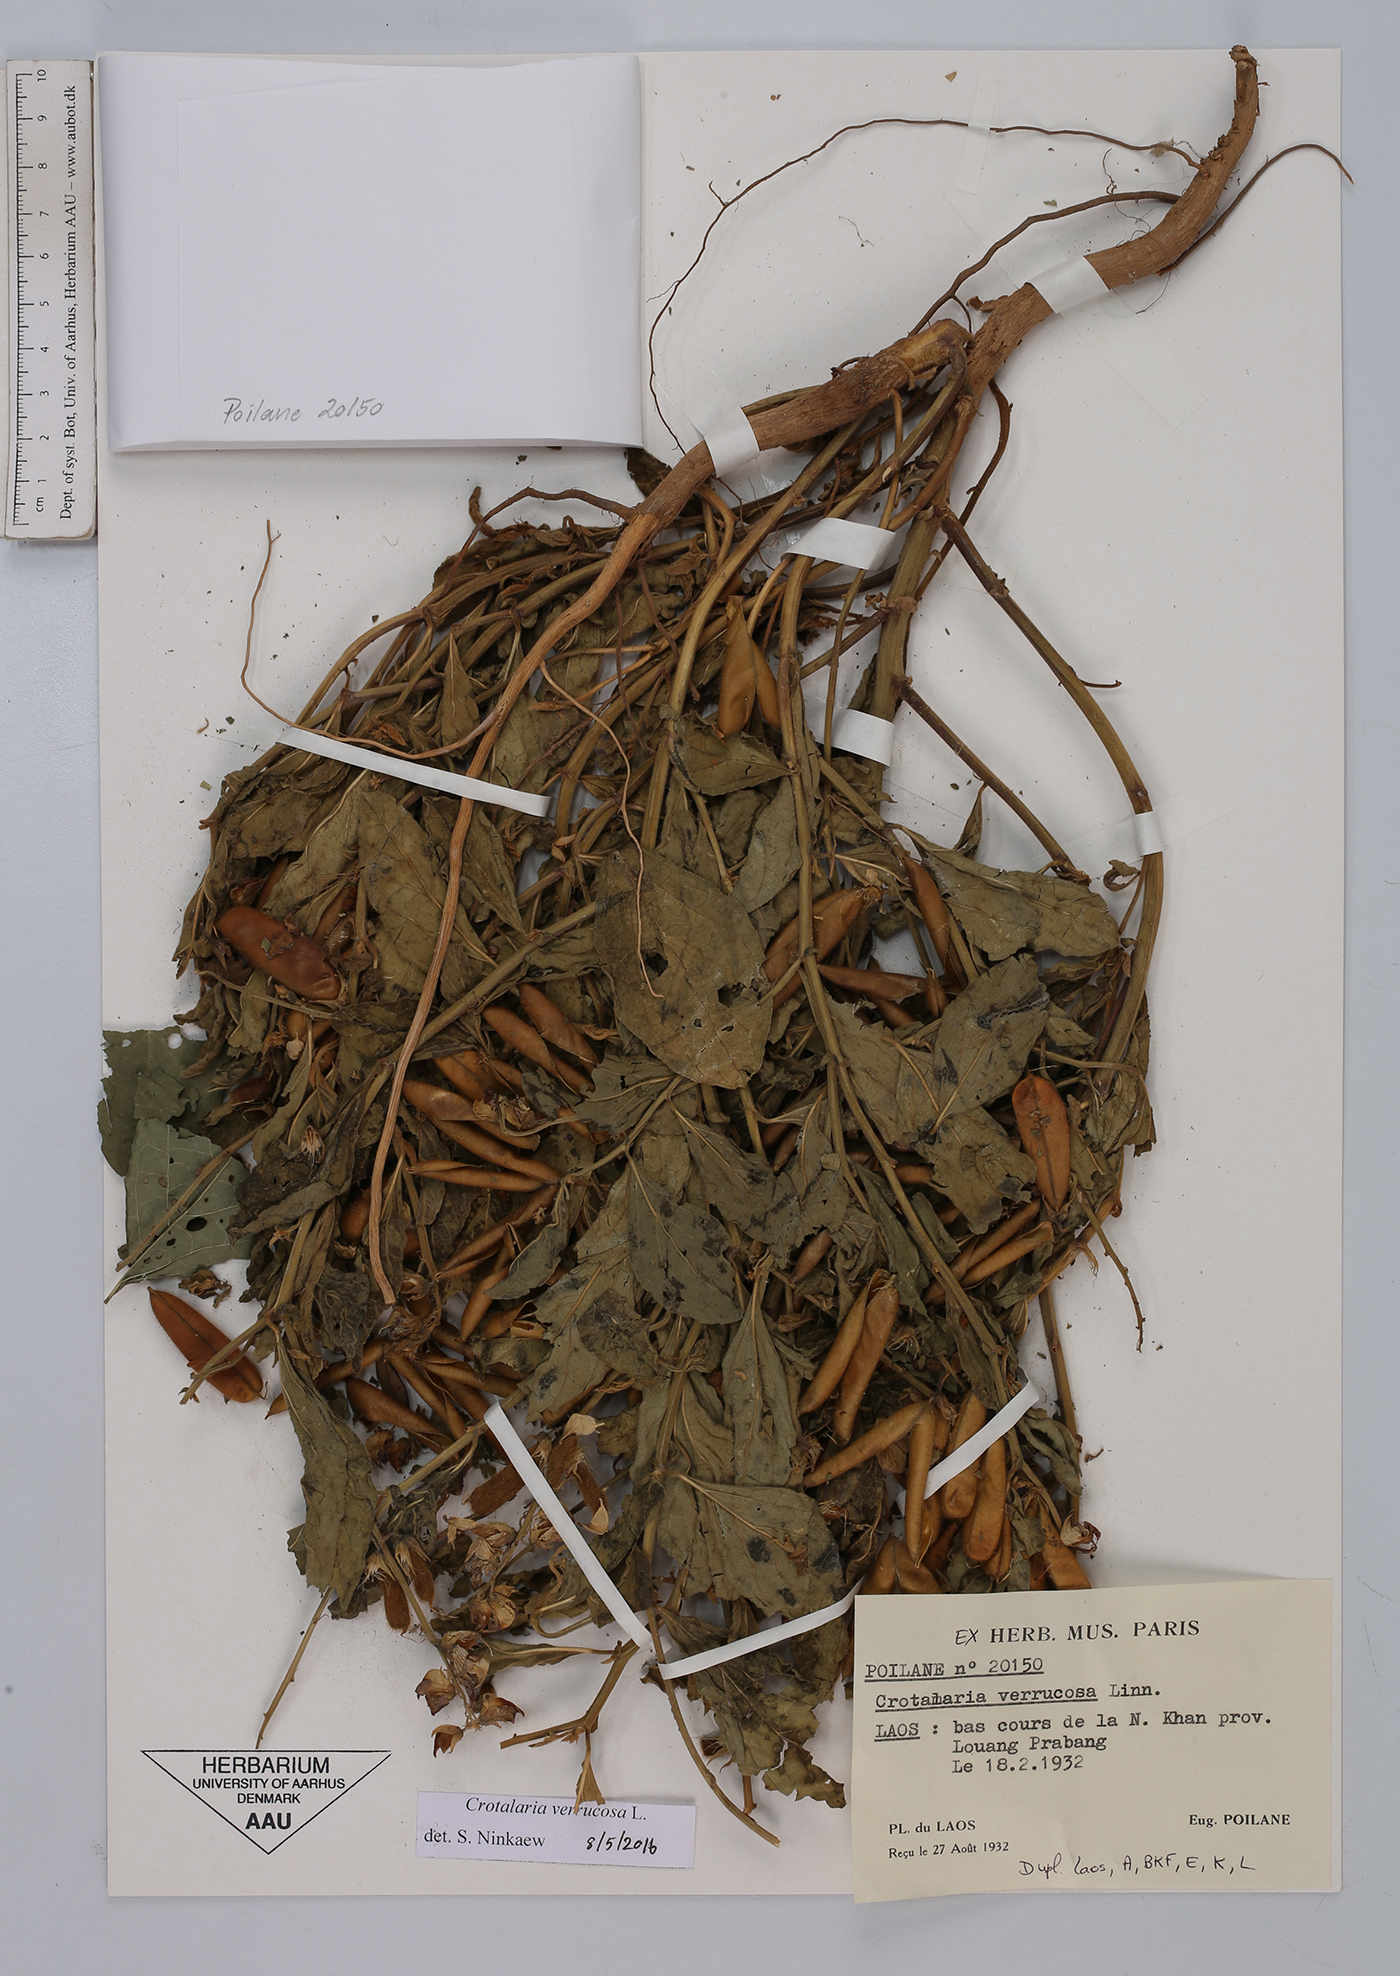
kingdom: Plantae
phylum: Tracheophyta
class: Magnoliopsida
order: Fabales
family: Fabaceae
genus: Crotalaria
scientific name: Crotalaria verrucosa
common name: Blue rattlesnake
